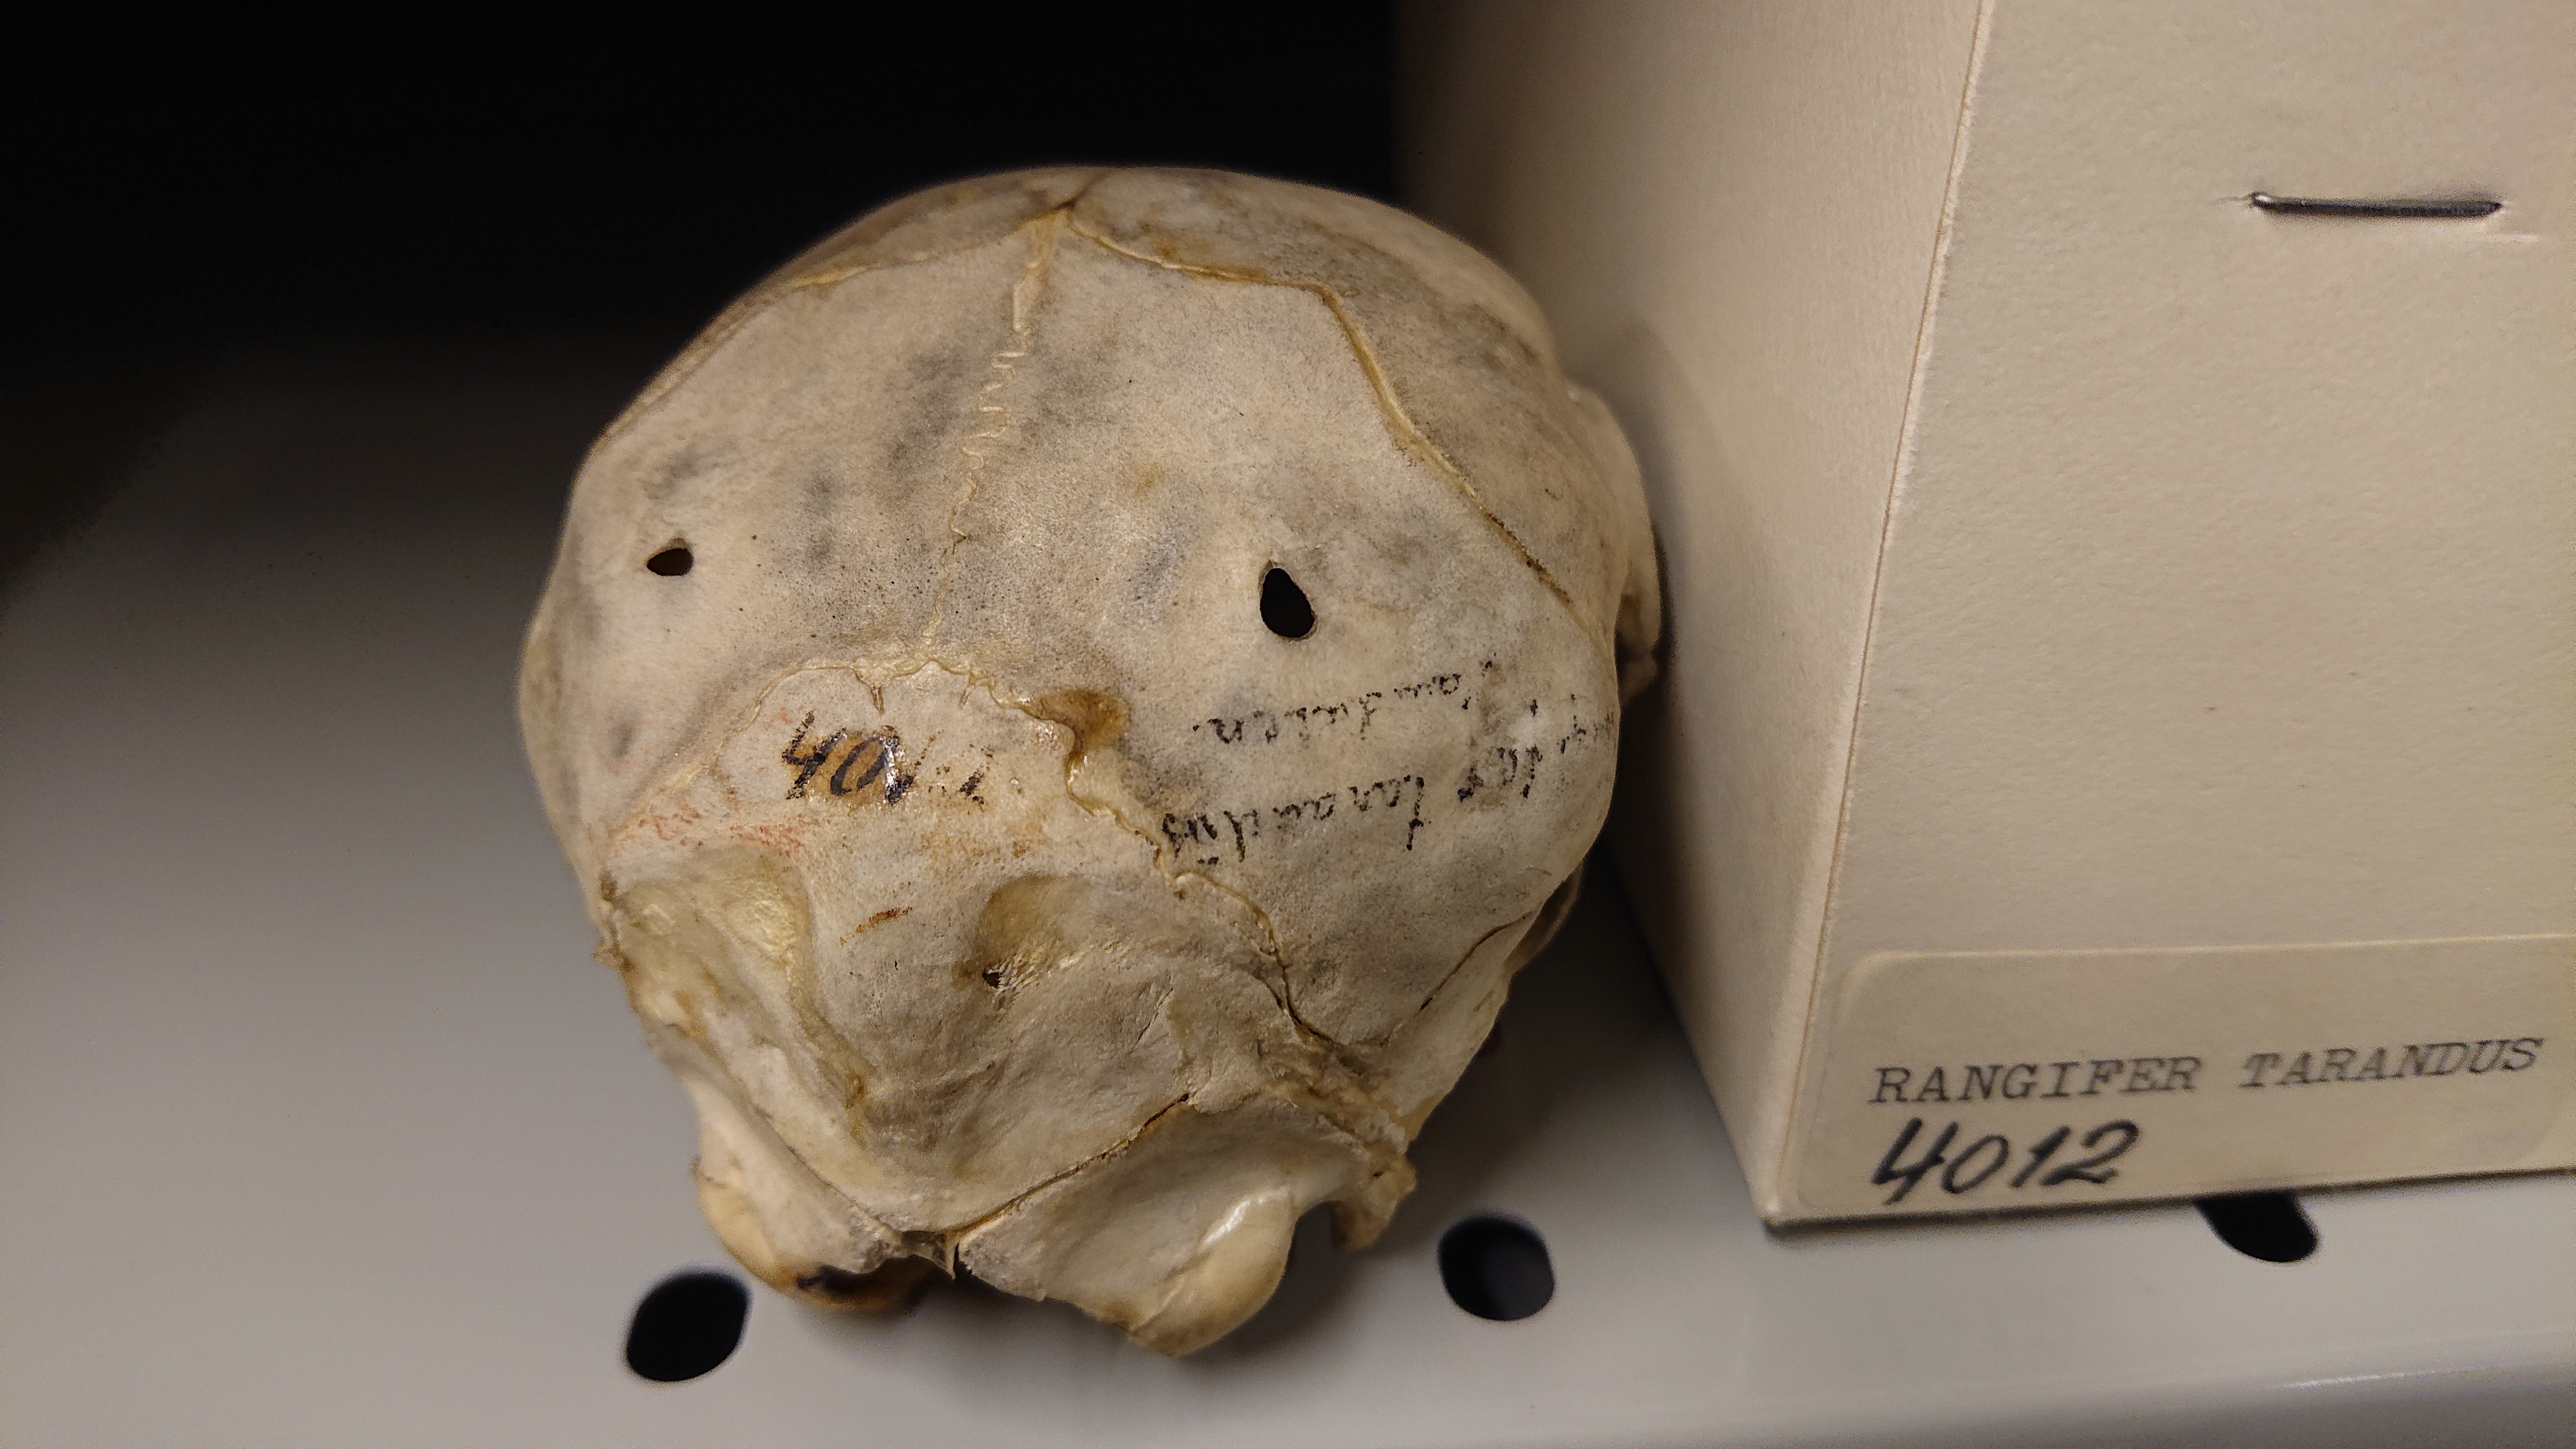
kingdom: Animalia
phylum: Chordata
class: Mammalia
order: Artiodactyla
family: Cervidae
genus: Rangifer
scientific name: Rangifer tarandus
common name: Reindeer
